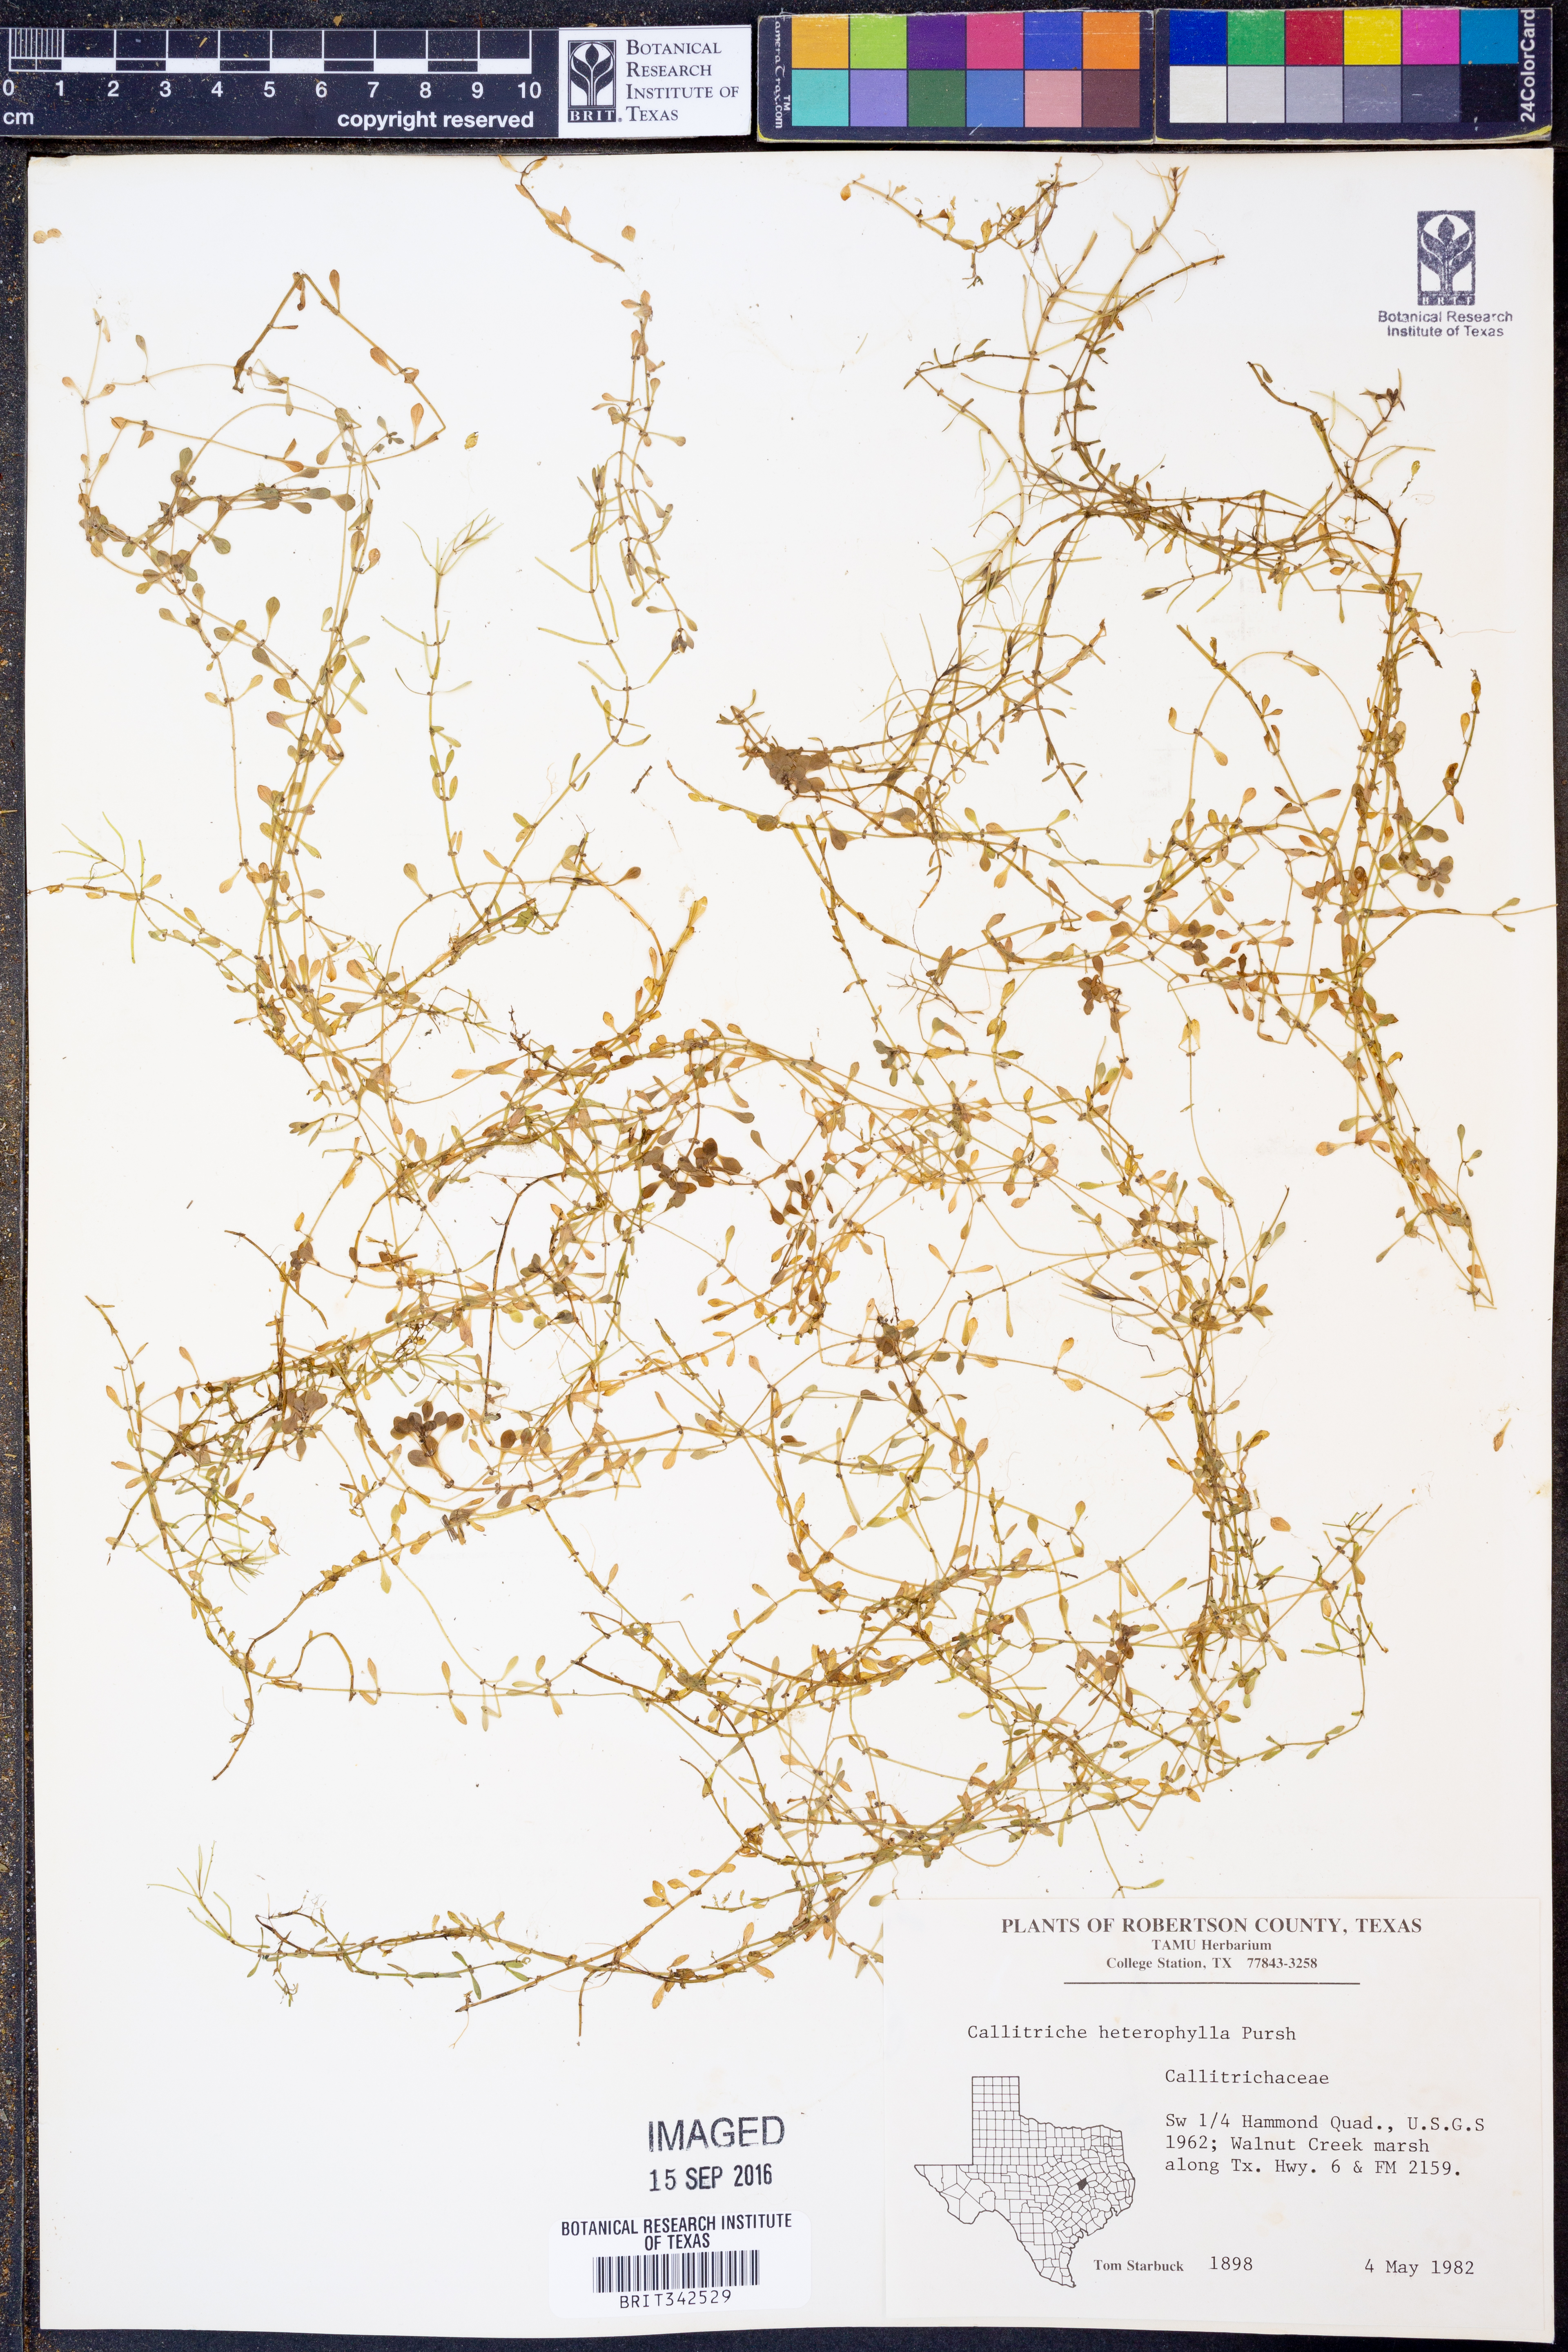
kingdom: Plantae
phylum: Tracheophyta
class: Magnoliopsida
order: Lamiales
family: Plantaginaceae
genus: Callitriche
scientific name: Callitriche heterophylla
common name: Two-headed water-starwort
